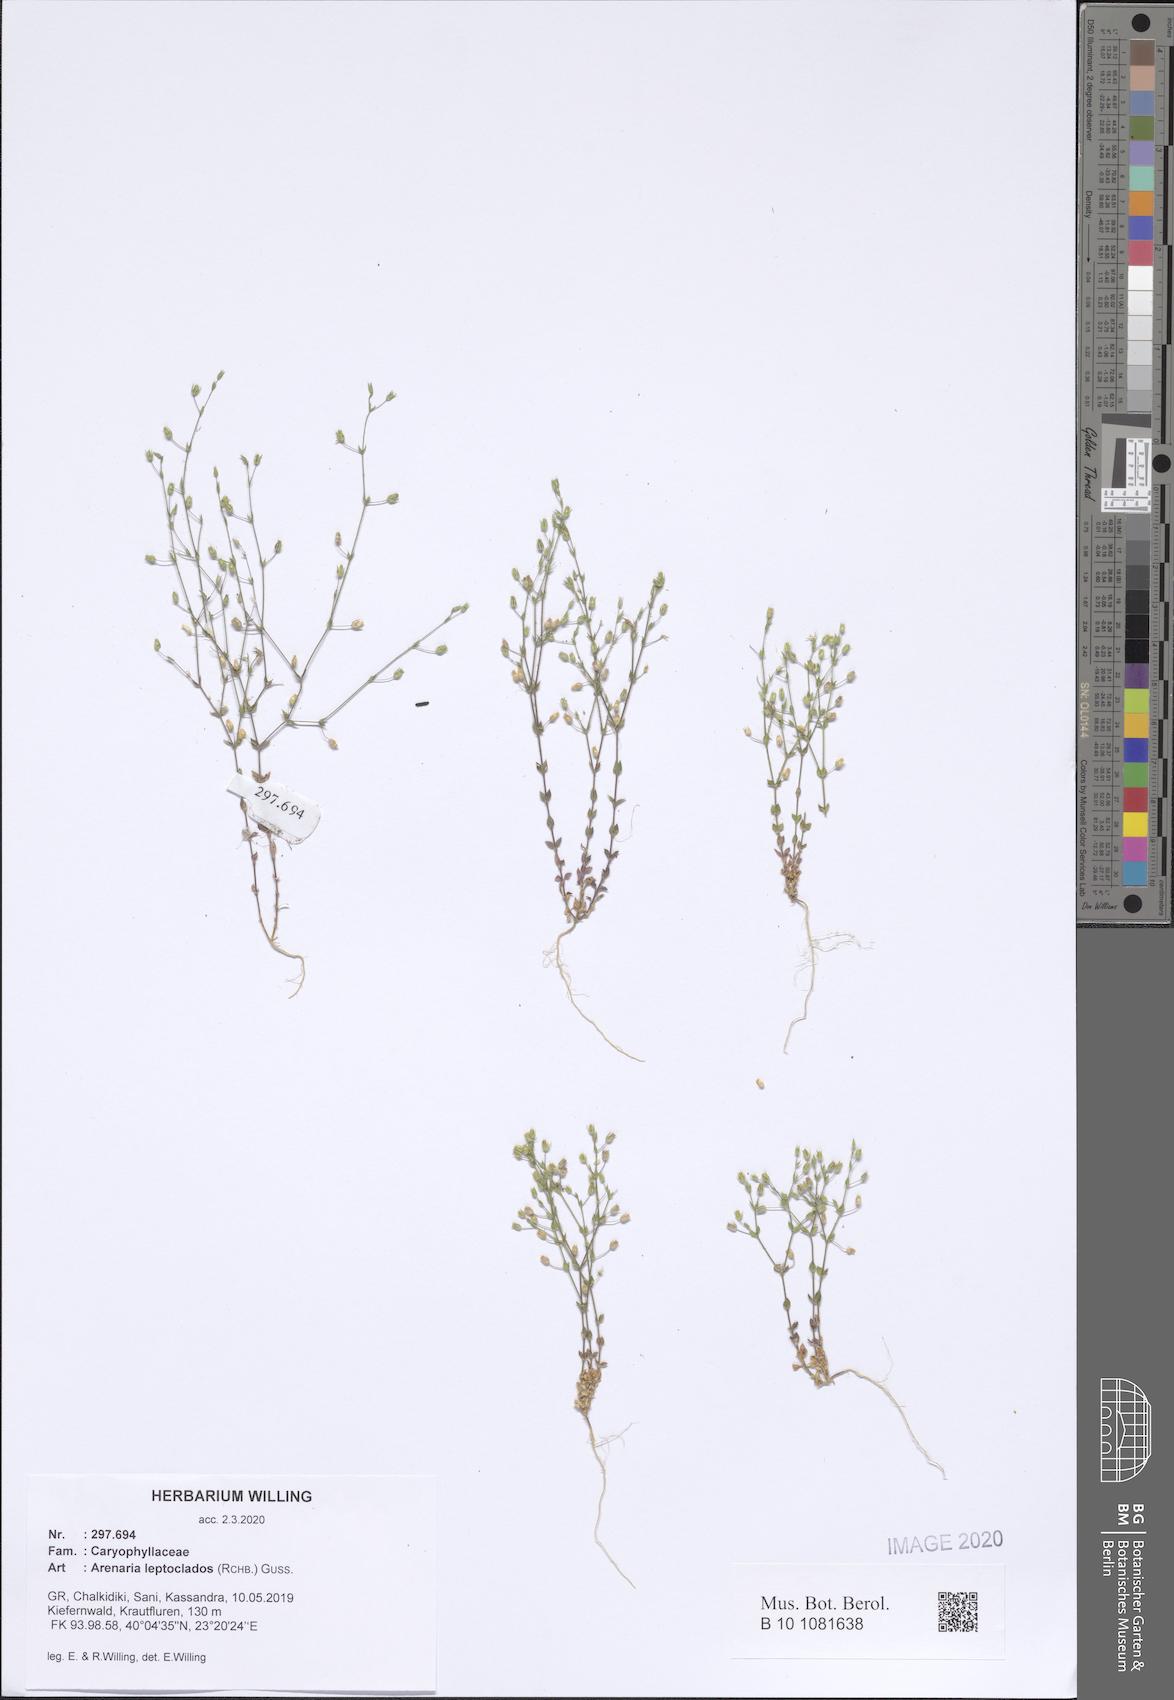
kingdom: Plantae
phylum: Tracheophyta
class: Magnoliopsida
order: Caryophyllales
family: Caryophyllaceae
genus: Arenaria
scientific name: Arenaria leptoclados
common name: Thyme-leaved sandwort
